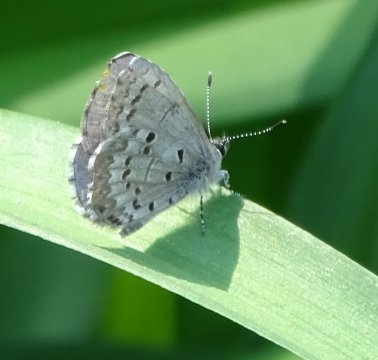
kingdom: Animalia
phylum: Arthropoda
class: Insecta
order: Lepidoptera
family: Lycaenidae
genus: Celastrina
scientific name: Celastrina lucia
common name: Northern Spring Azure
